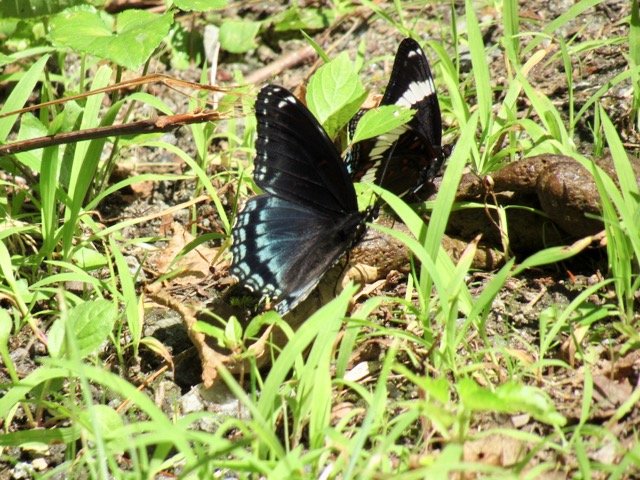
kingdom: Animalia
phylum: Arthropoda
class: Insecta
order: Lepidoptera
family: Nymphalidae
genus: Limenitis
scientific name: Limenitis arthemis
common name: Red-spotted Admiral
